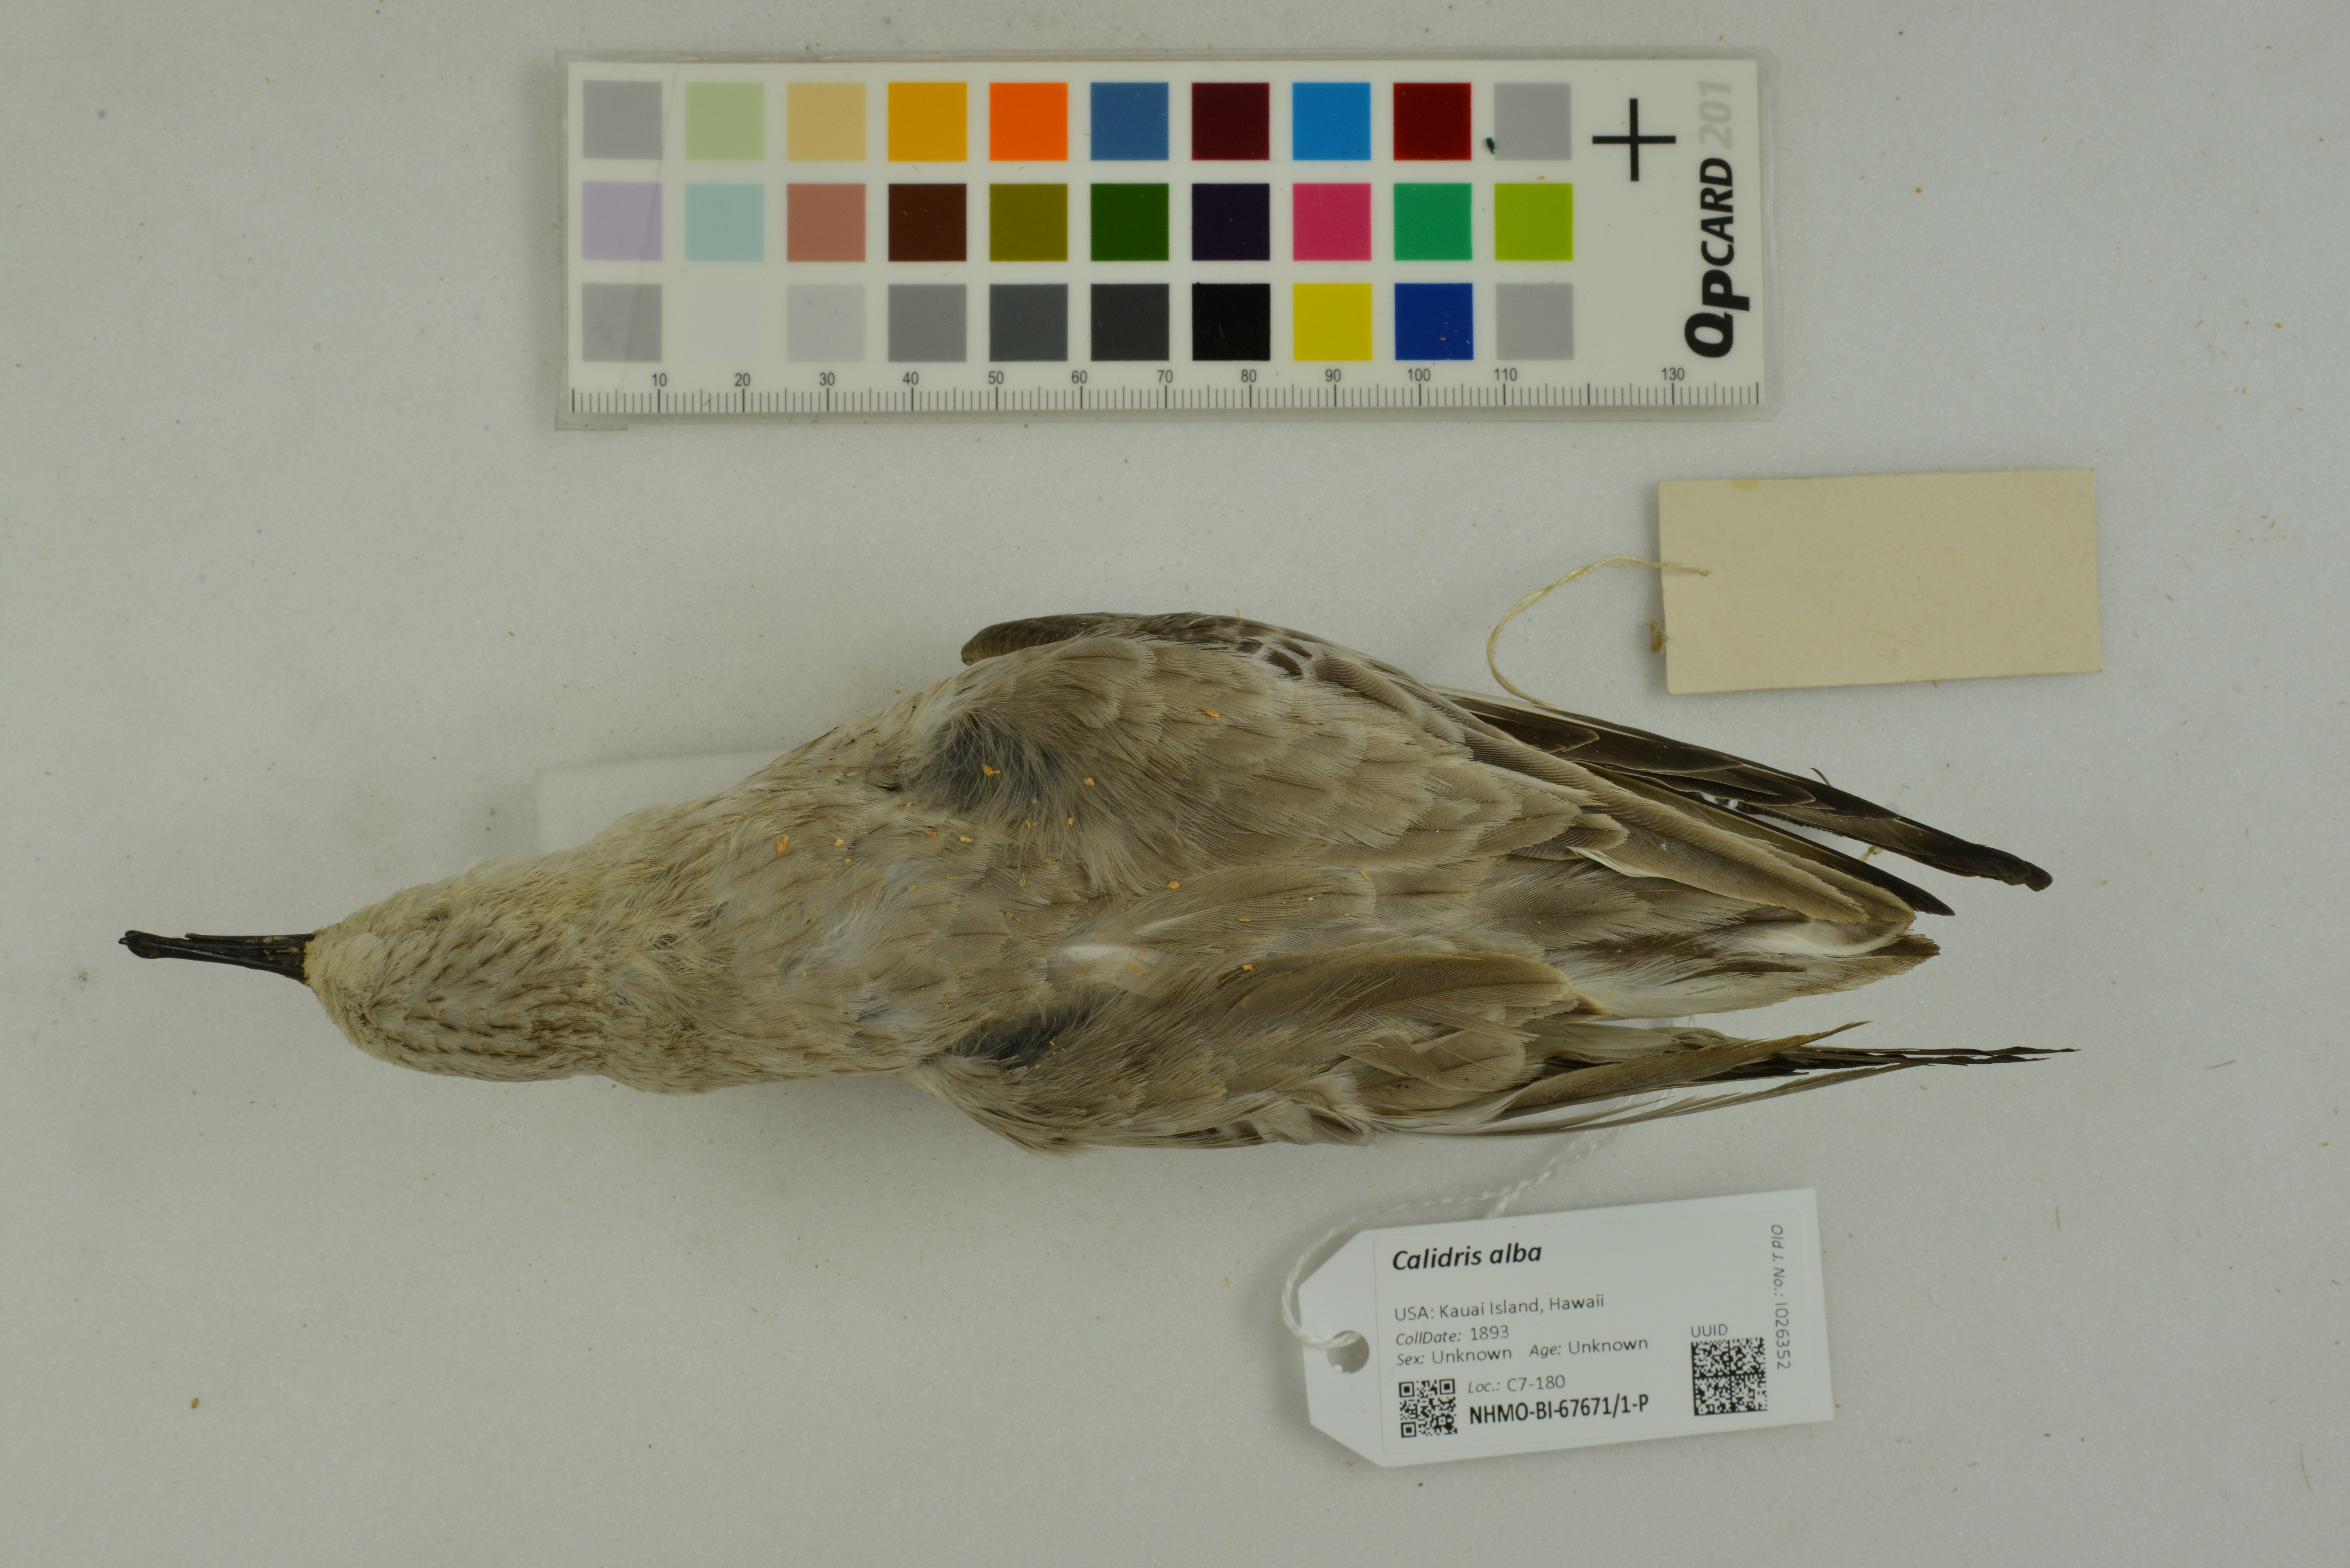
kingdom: Animalia
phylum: Chordata
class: Aves
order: Charadriiformes
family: Scolopacidae
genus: Calidris
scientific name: Calidris alba
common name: Sanderling
